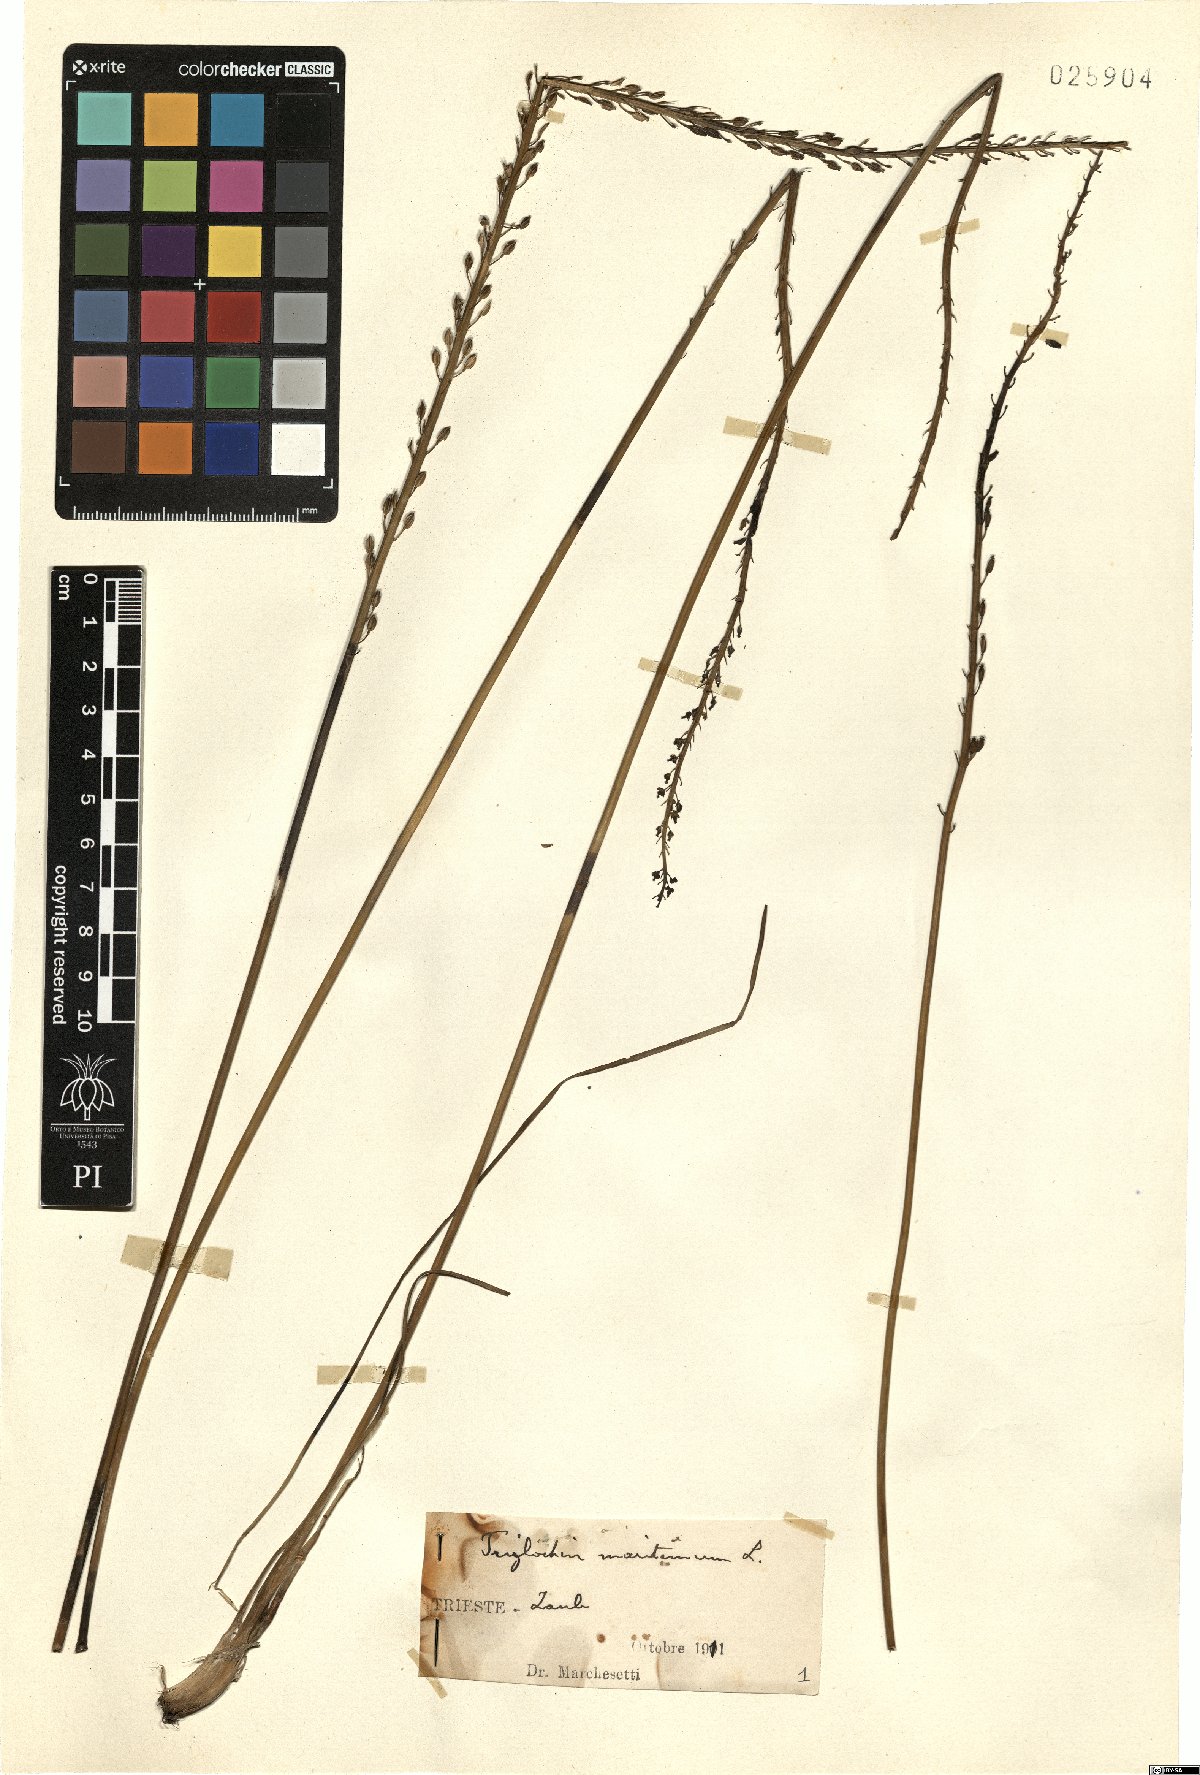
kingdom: Plantae
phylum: Tracheophyta
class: Liliopsida
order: Alismatales
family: Juncaginaceae
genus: Triglochin
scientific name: Triglochin maritima
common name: Sea arrowgrass
